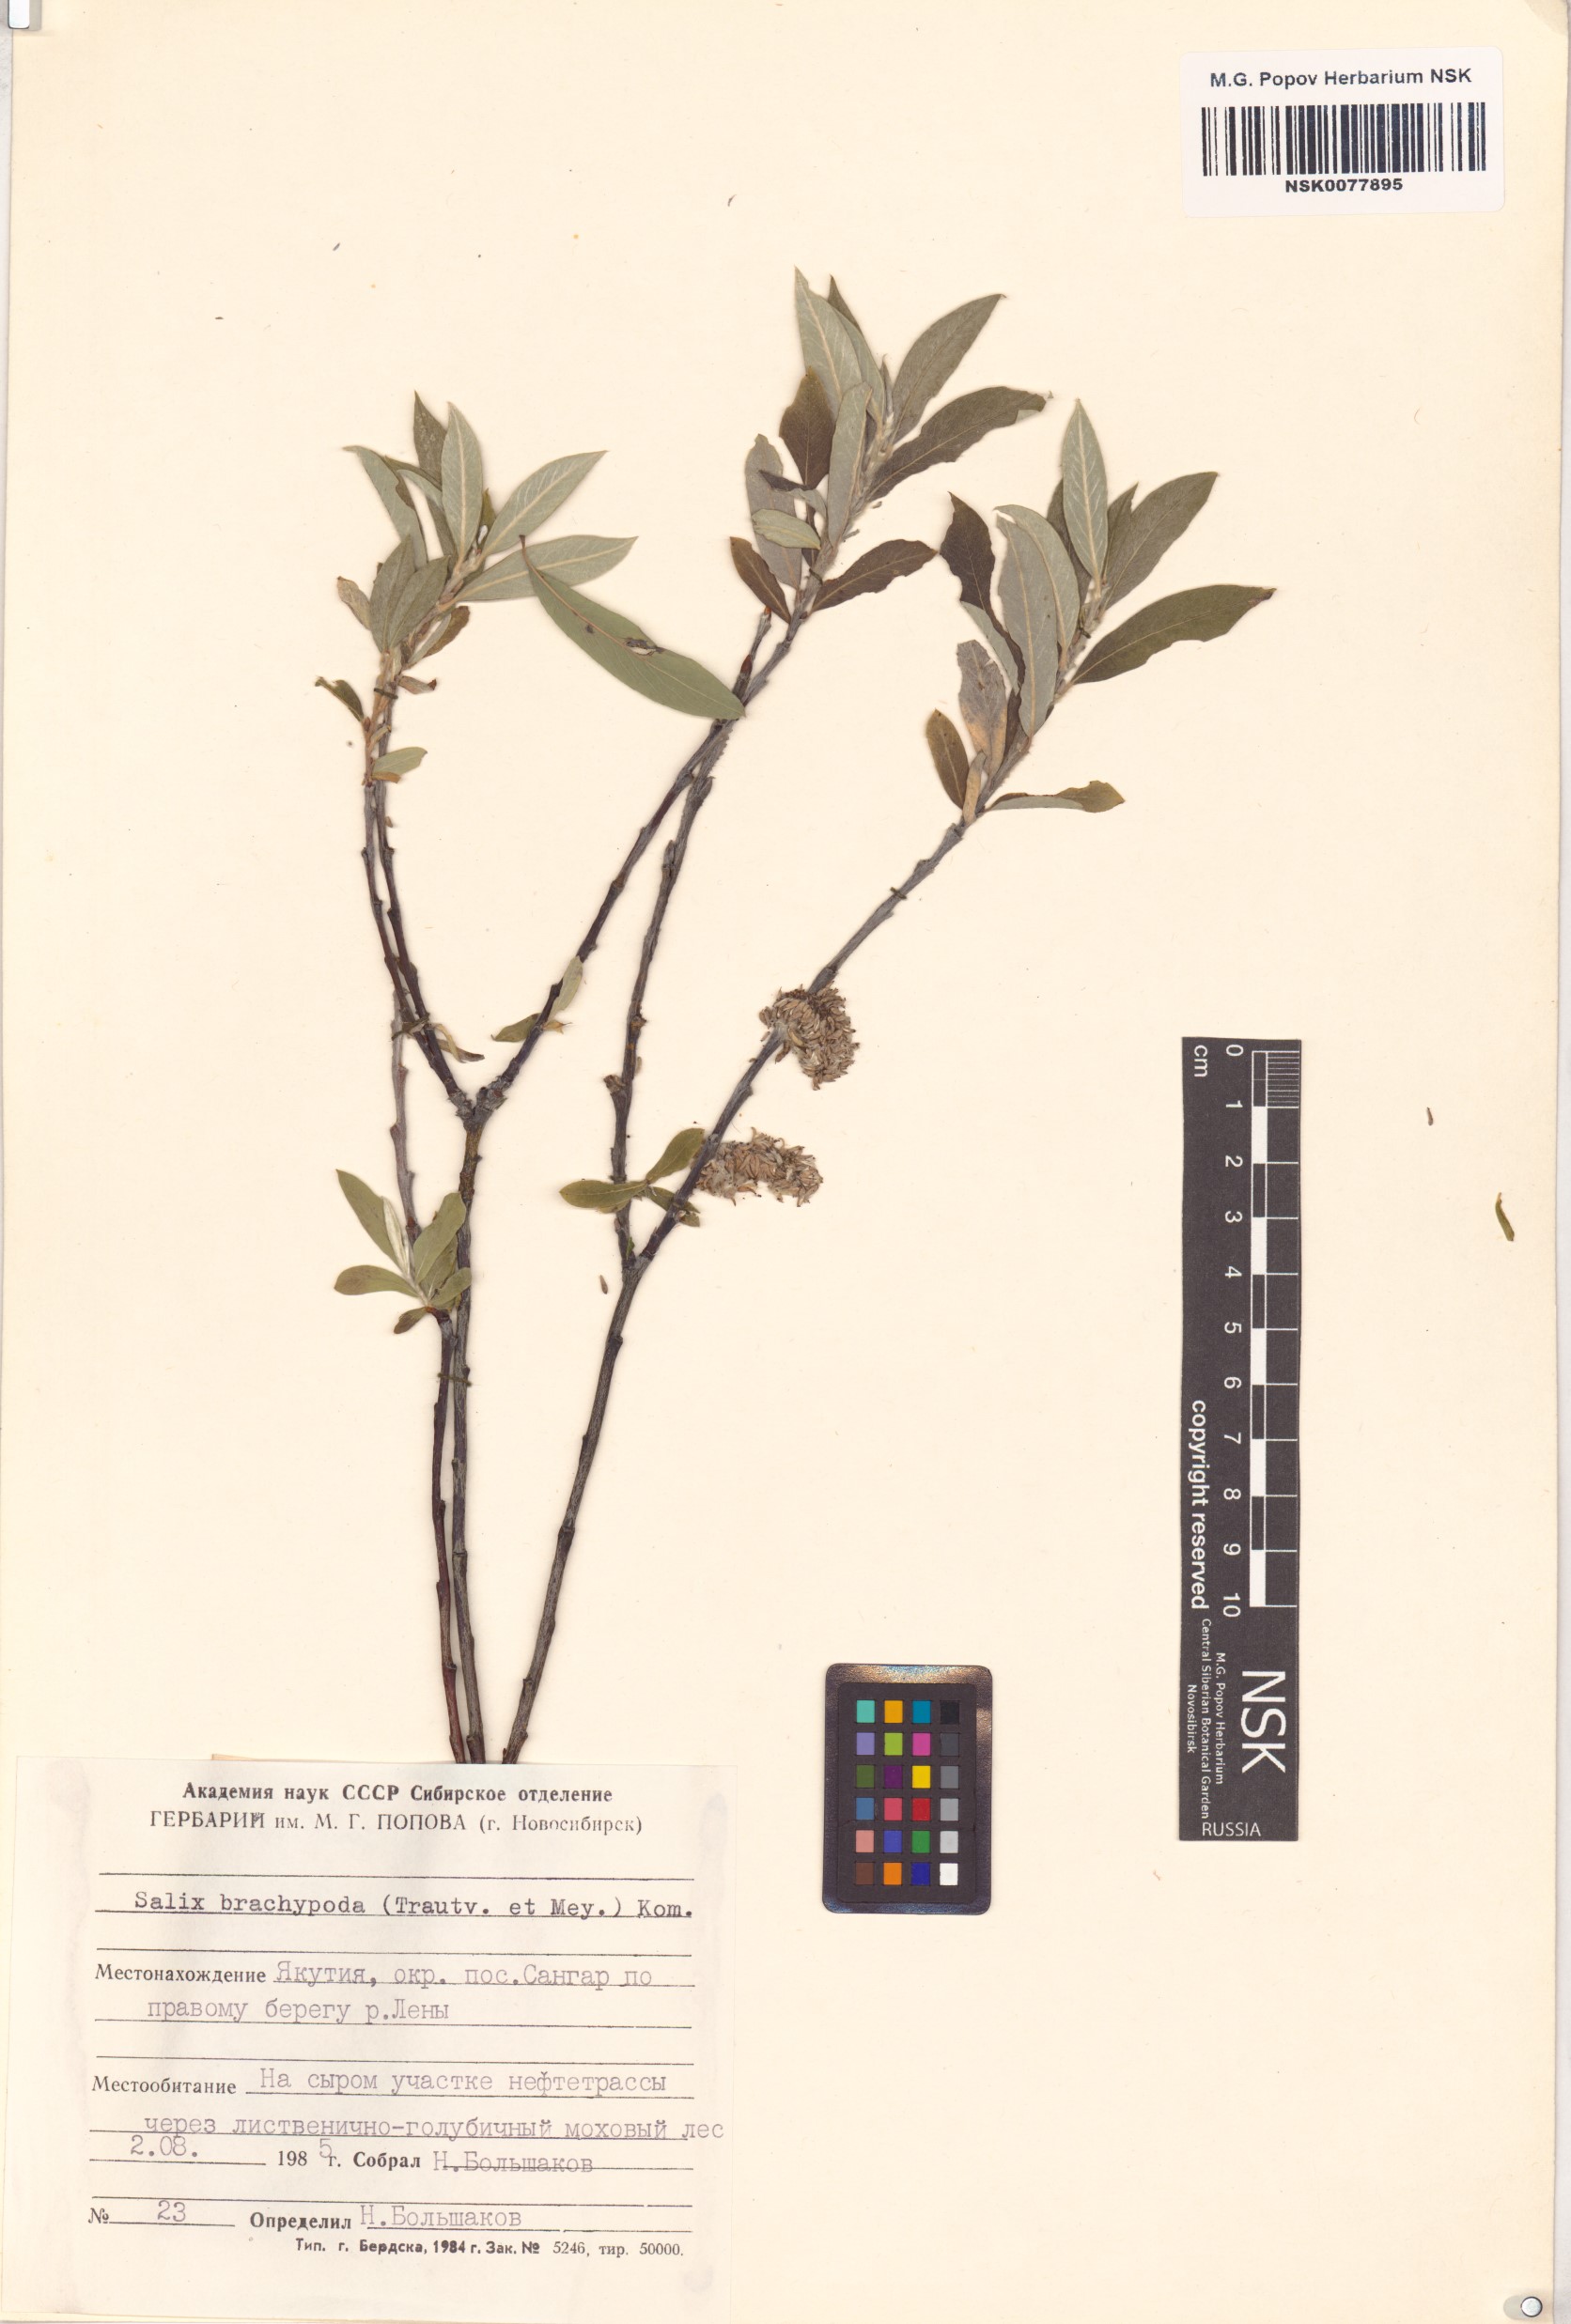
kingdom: Plantae
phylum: Tracheophyta
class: Magnoliopsida
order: Malpighiales
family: Salicaceae
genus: Salix
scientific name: Salix brachypoda
